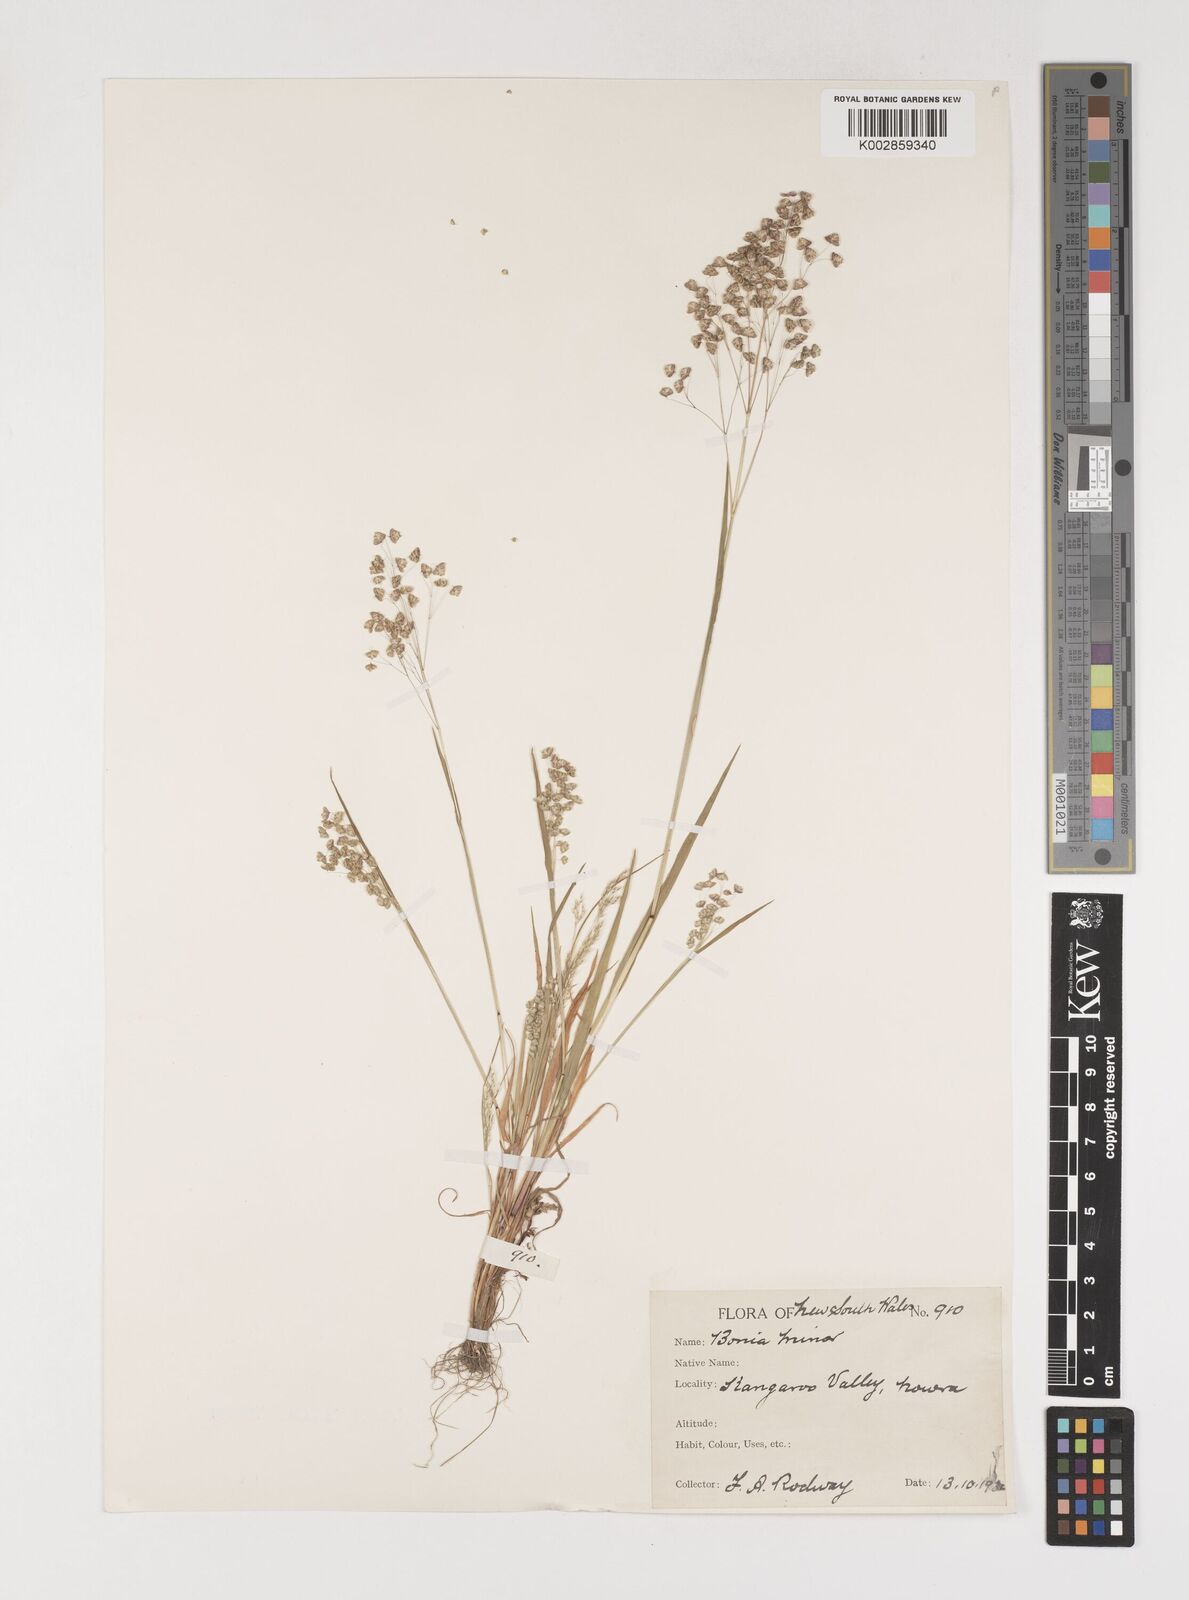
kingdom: Plantae
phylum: Tracheophyta
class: Liliopsida
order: Poales
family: Poaceae
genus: Briza
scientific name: Briza minor
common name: Lesser quaking-grass
